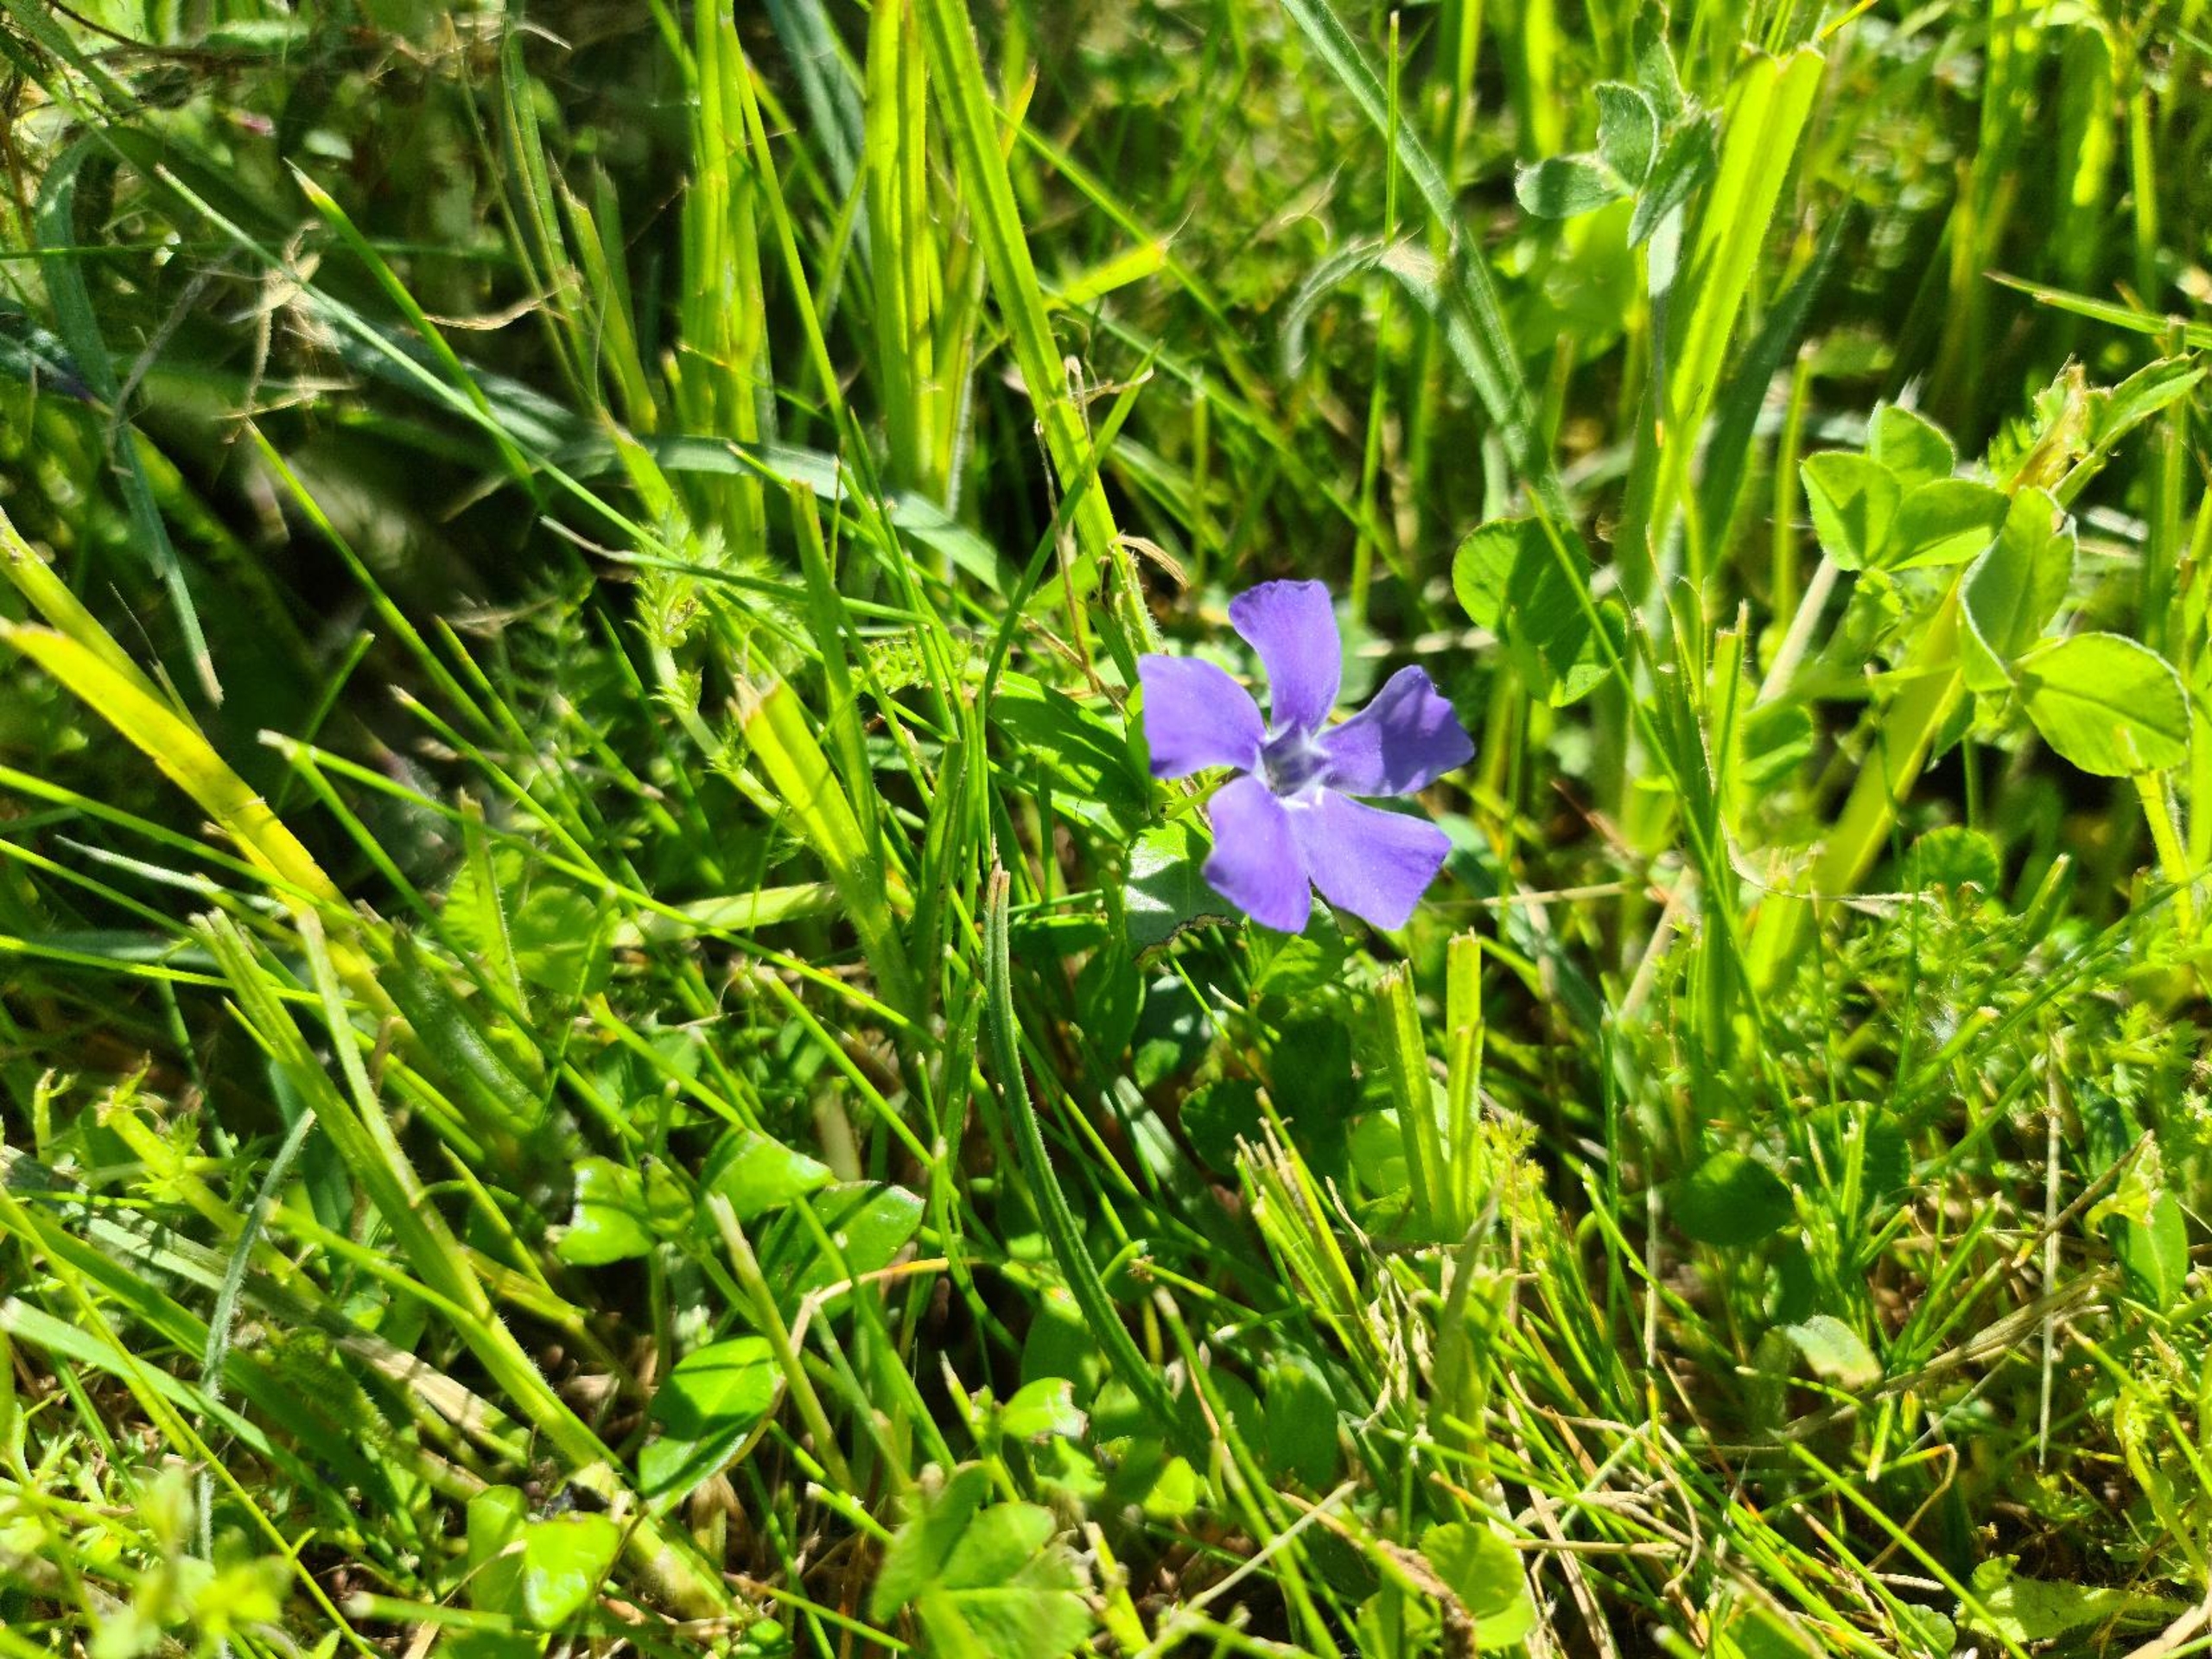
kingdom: Plantae
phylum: Tracheophyta
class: Magnoliopsida
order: Gentianales
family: Apocynaceae
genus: Vinca
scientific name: Vinca minor
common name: Liden singrøn
